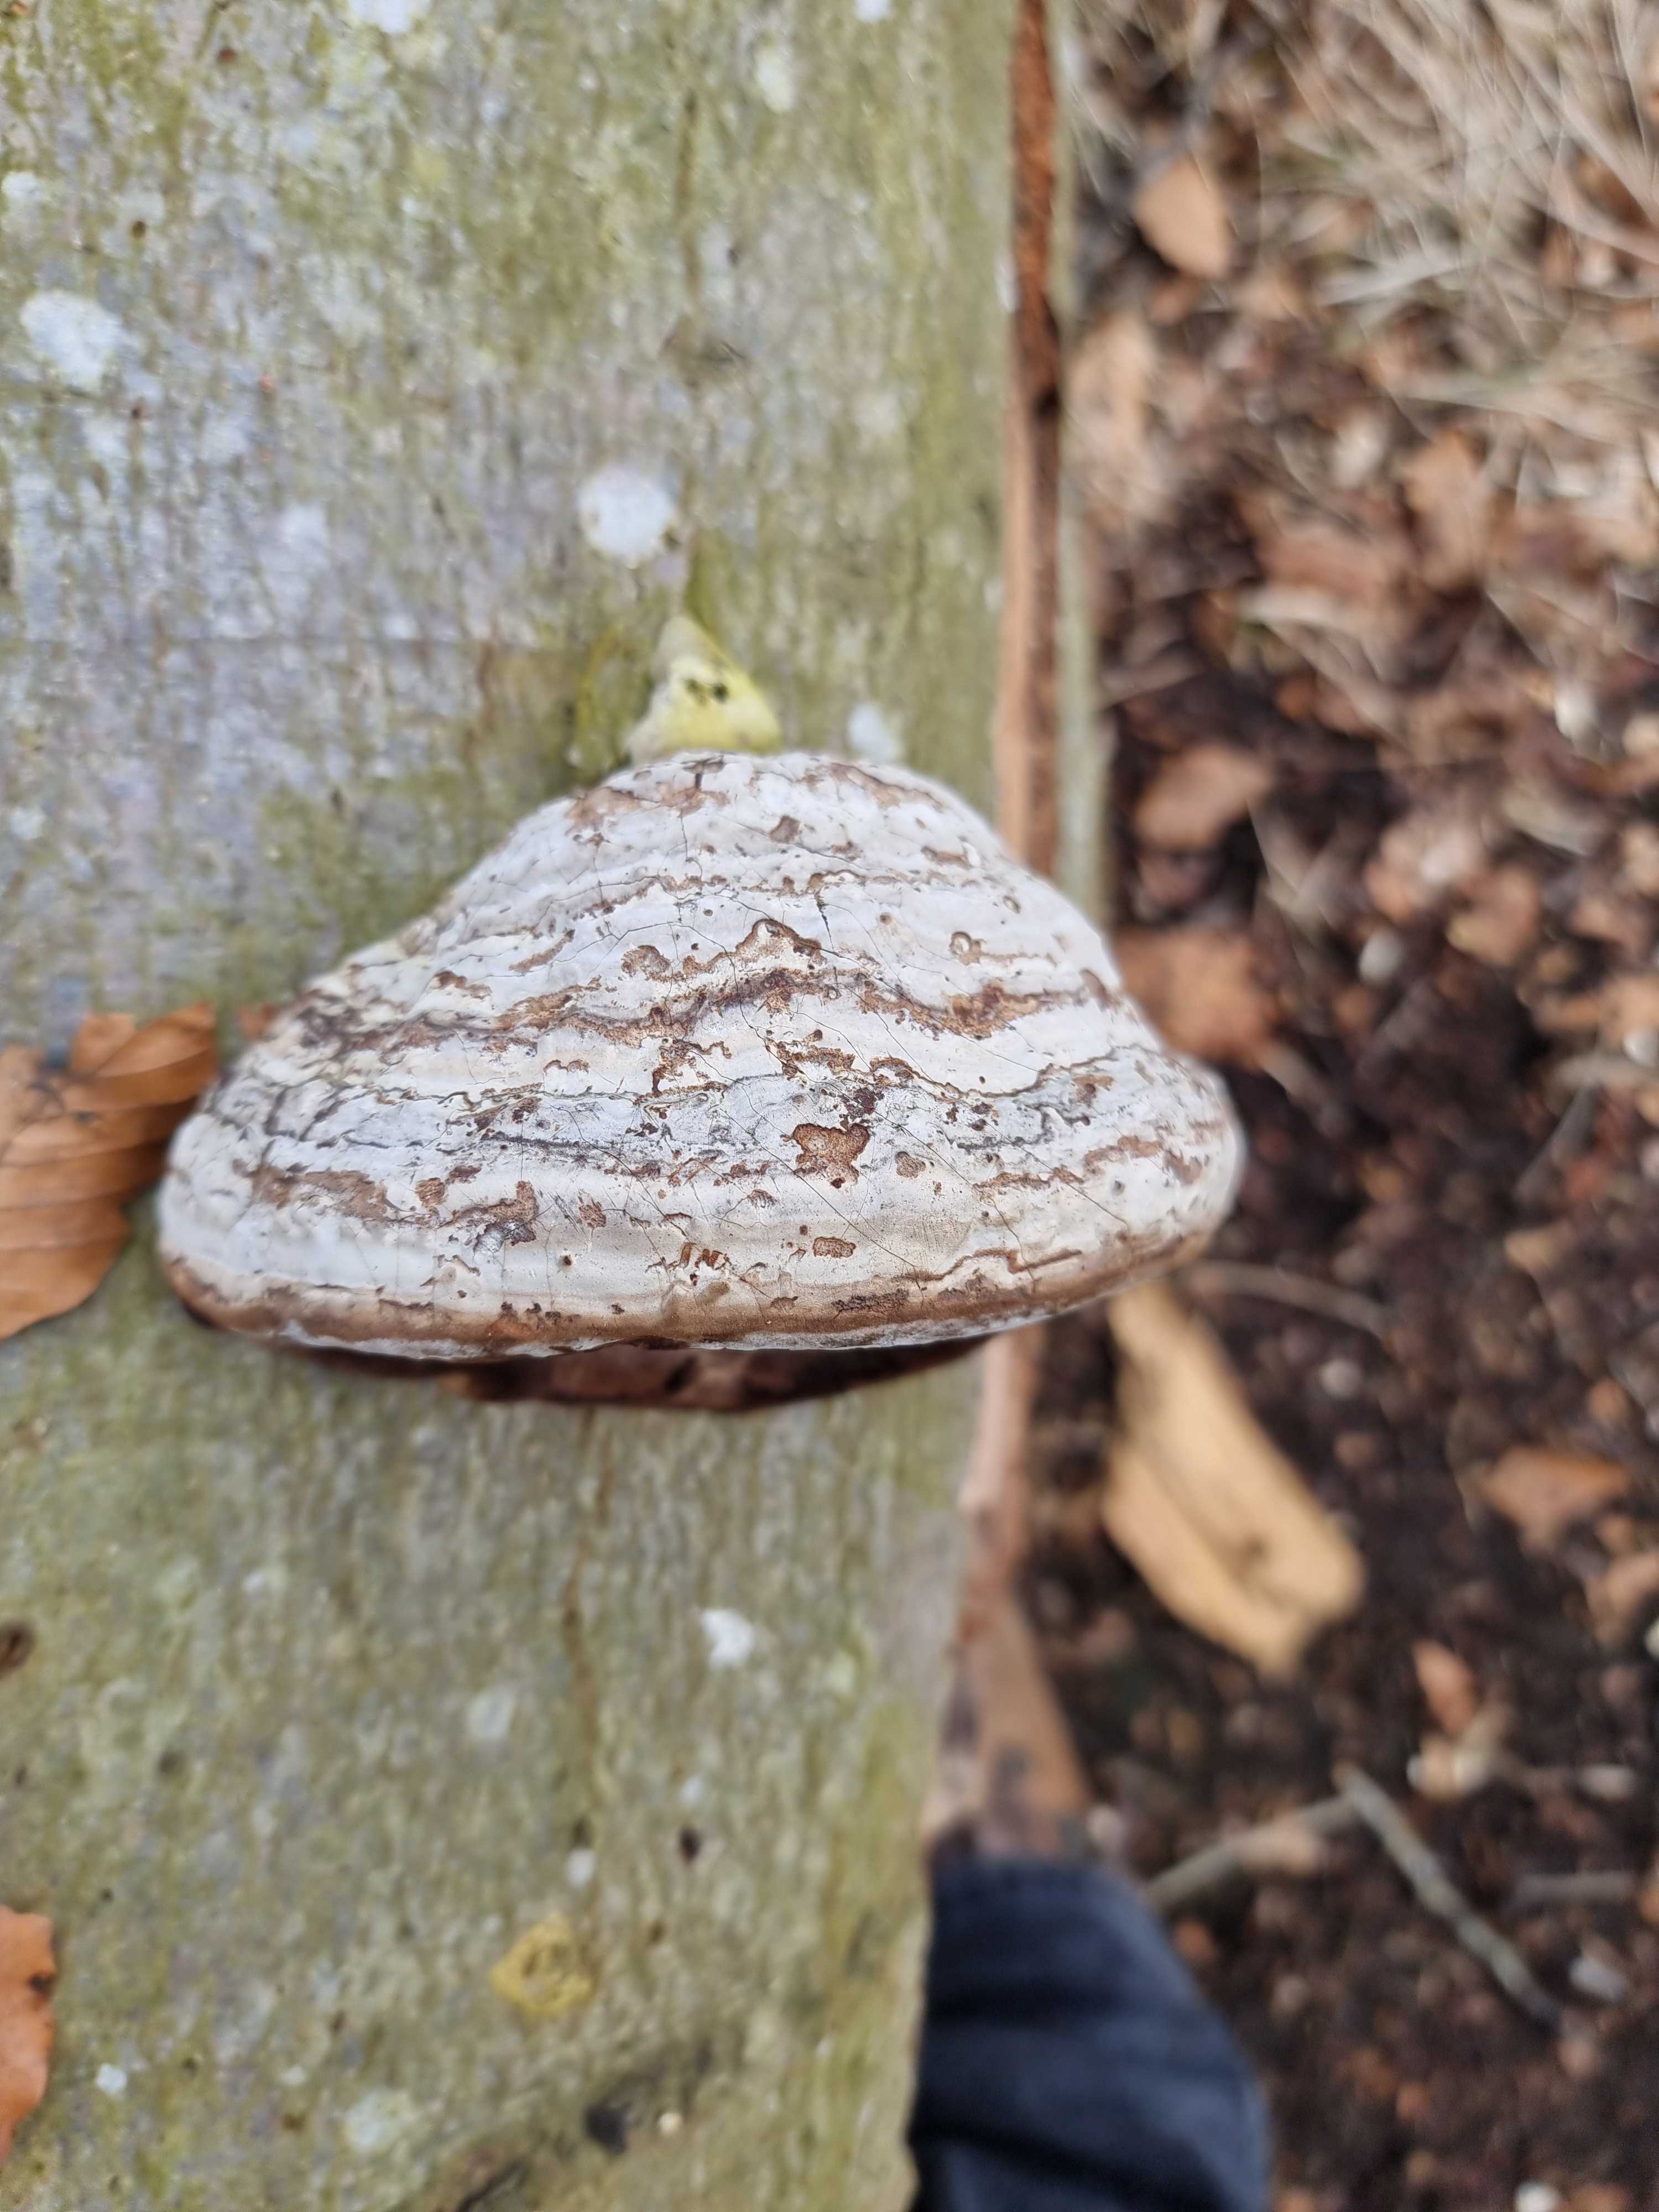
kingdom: Fungi
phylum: Basidiomycota
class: Agaricomycetes
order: Polyporales
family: Polyporaceae
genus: Fomes
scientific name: Fomes fomentarius
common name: tøndersvamp
